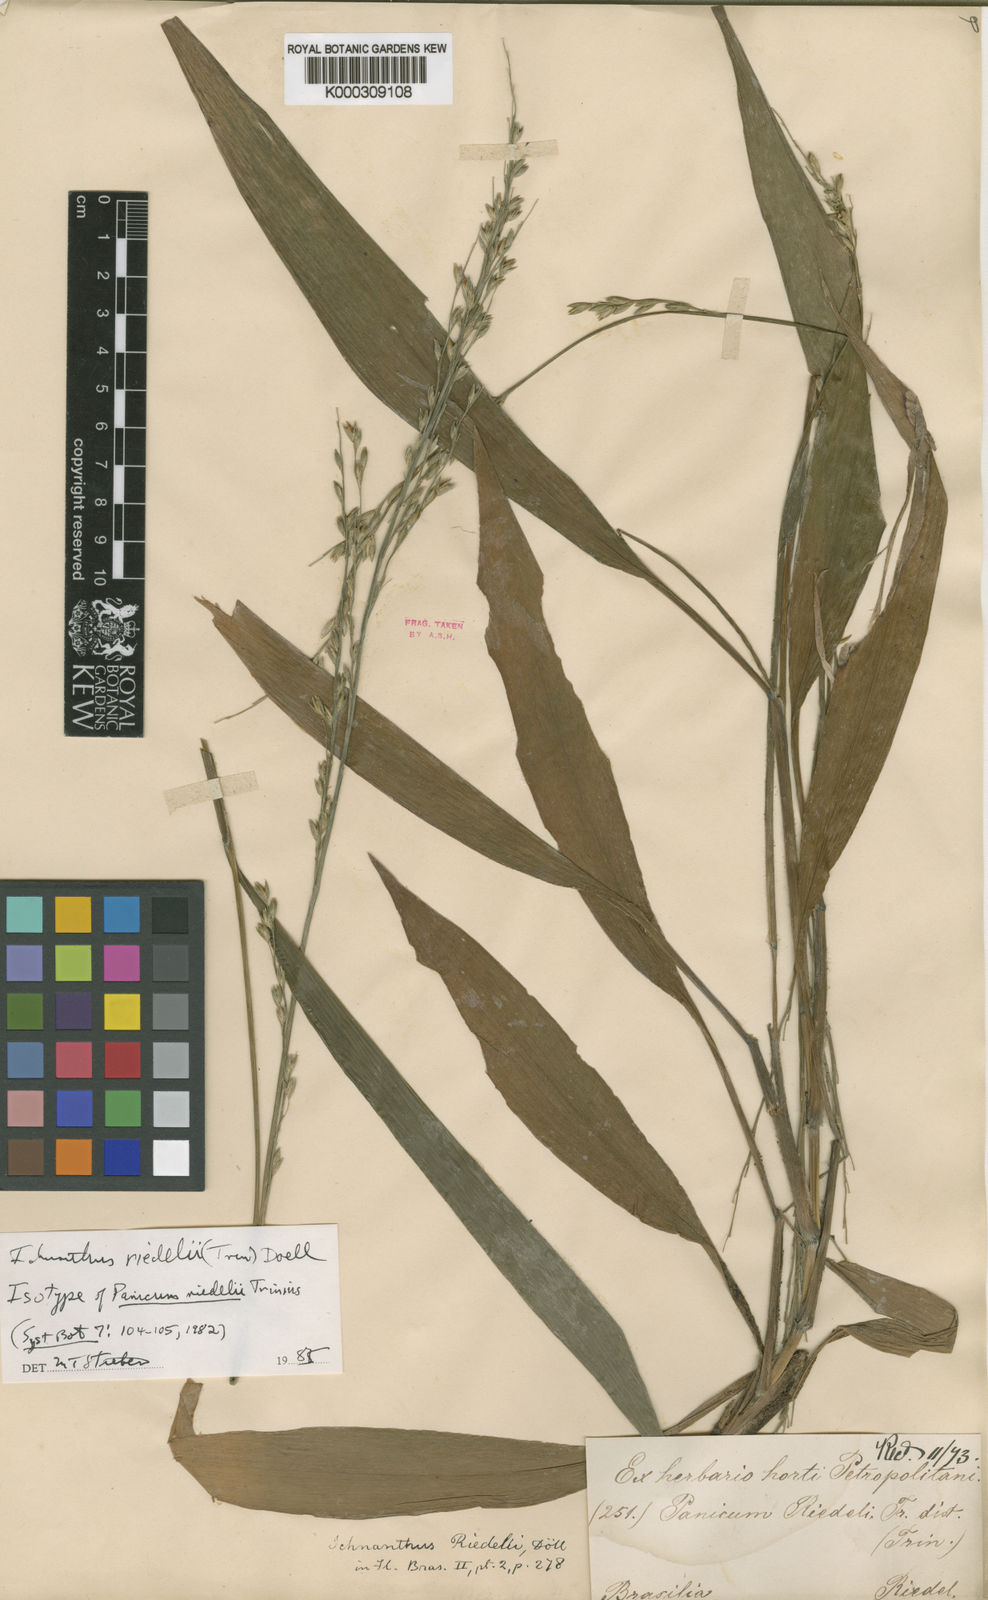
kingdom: Plantae
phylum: Tracheophyta
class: Liliopsida
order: Poales
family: Poaceae
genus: Ichnanthus
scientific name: Ichnanthus
